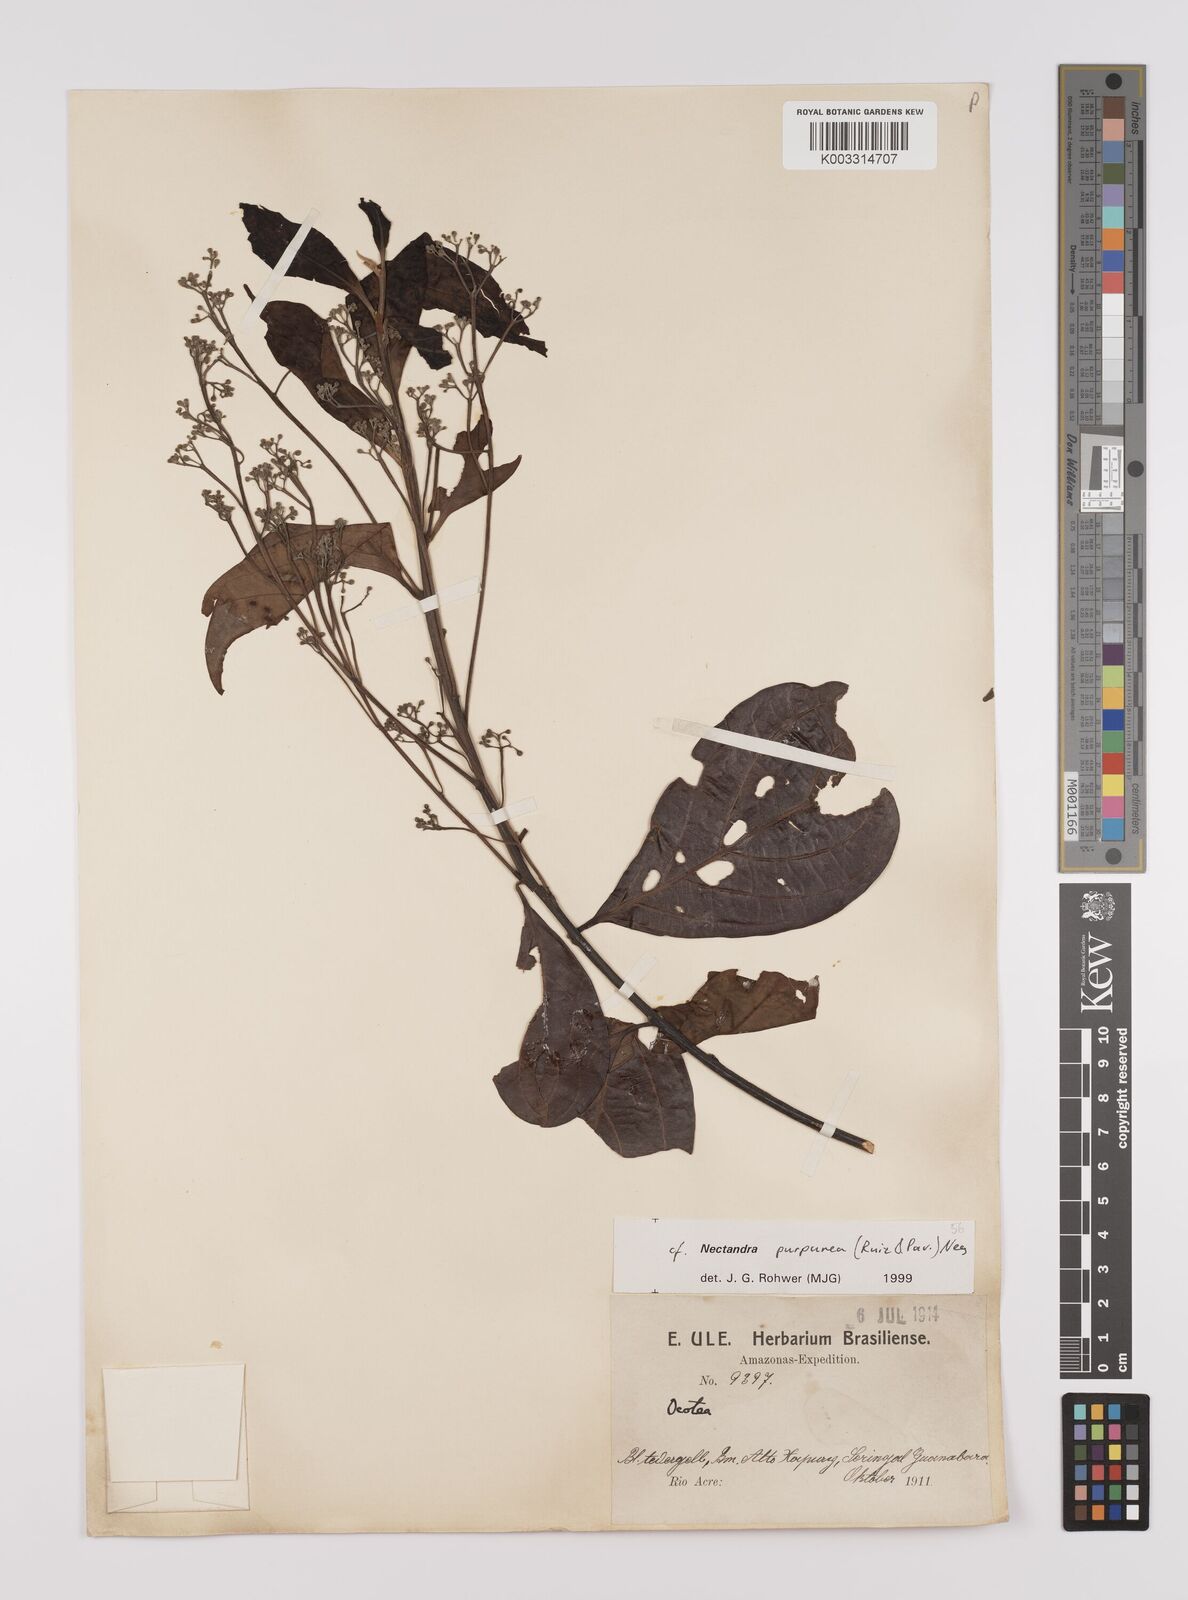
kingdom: Plantae
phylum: Tracheophyta
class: Magnoliopsida
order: Laurales
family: Lauraceae
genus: Damburneya
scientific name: Damburneya purpurea
